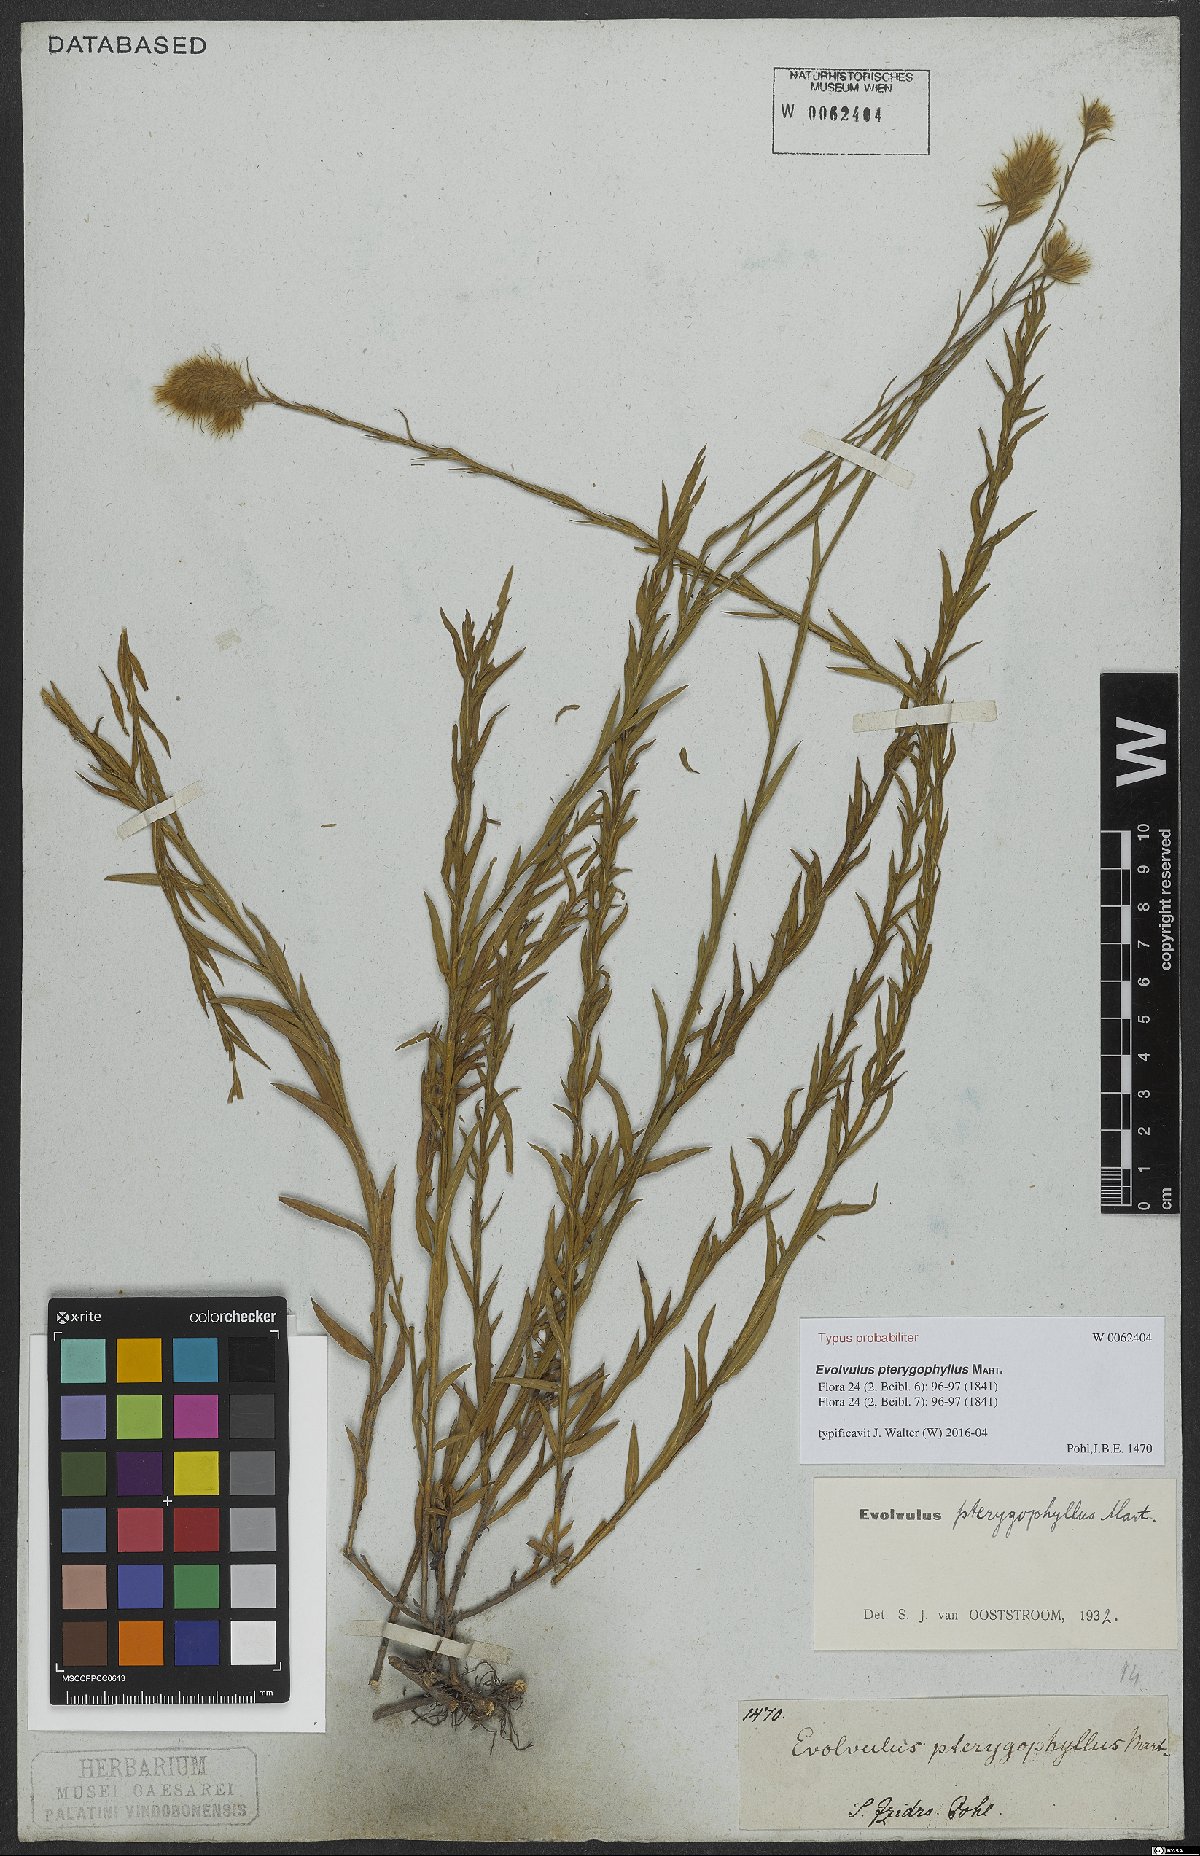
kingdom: Plantae
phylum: Tracheophyta
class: Magnoliopsida
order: Solanales
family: Convolvulaceae
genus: Evolvulus
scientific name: Evolvulus pterygophyllus
